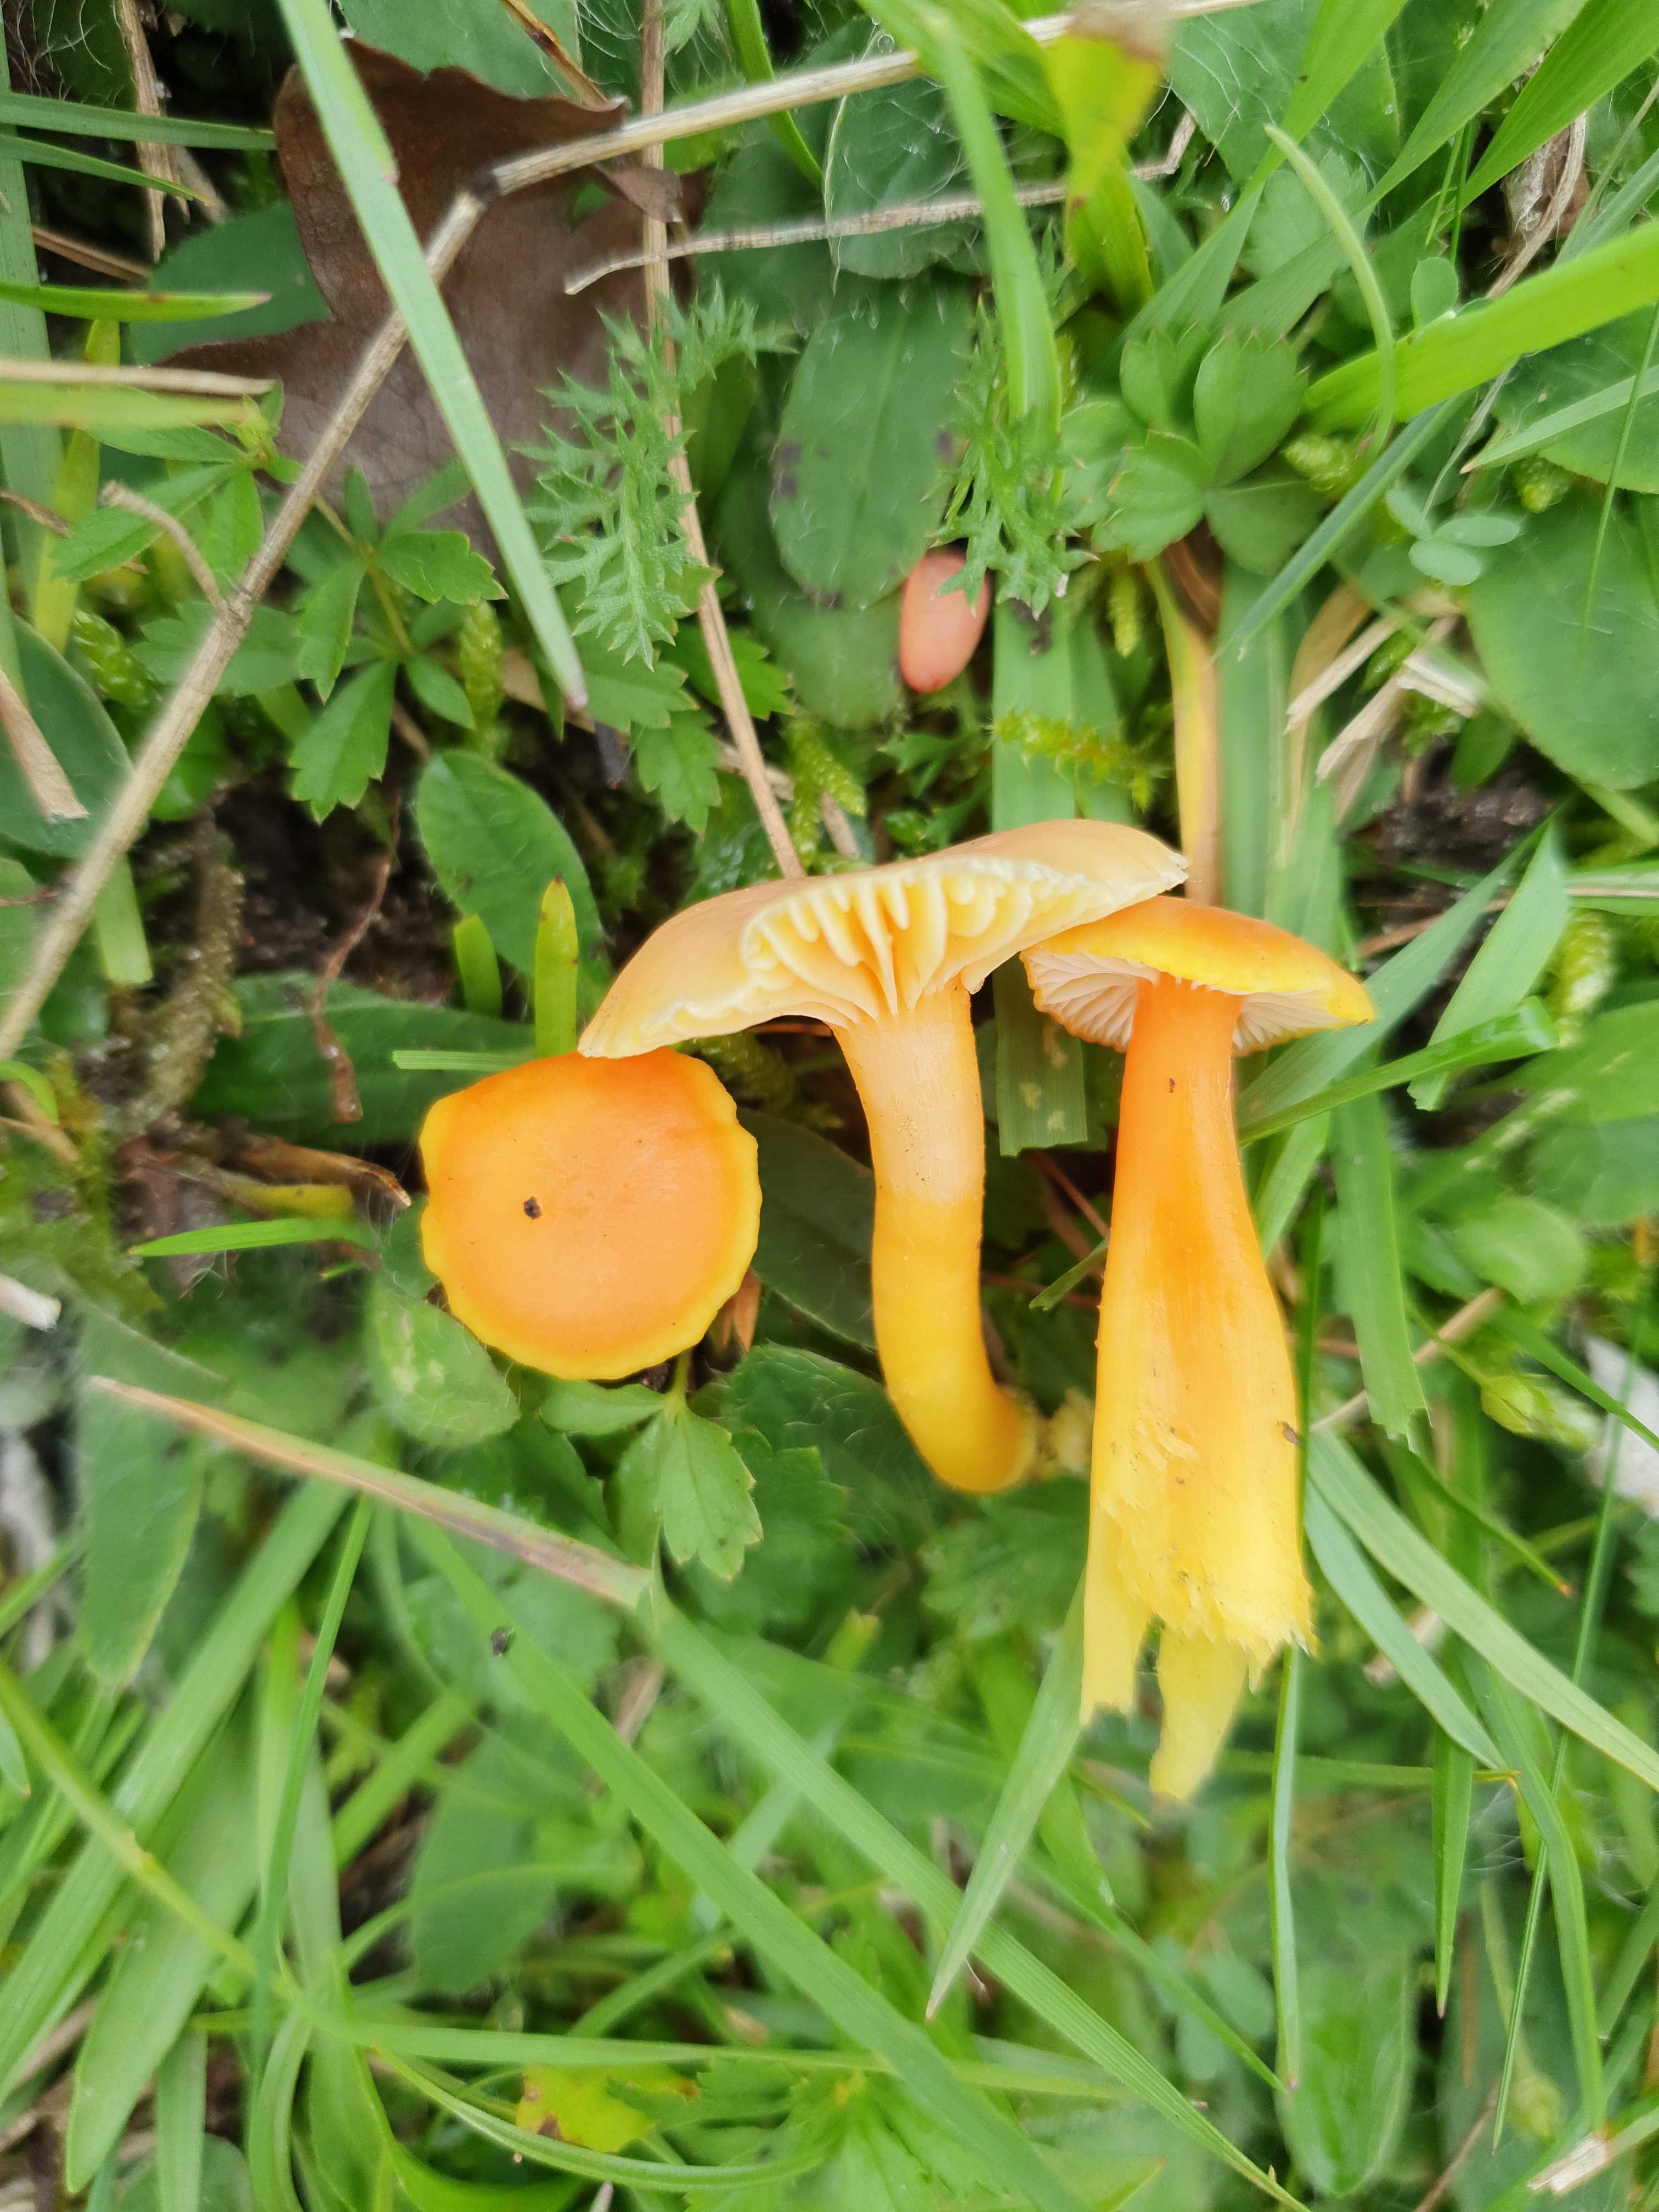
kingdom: Fungi
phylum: Basidiomycota
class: Agaricomycetes
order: Agaricales
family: Hygrophoraceae
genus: Hygrocybe
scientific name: Hygrocybe reidii
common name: honning-vokshat
